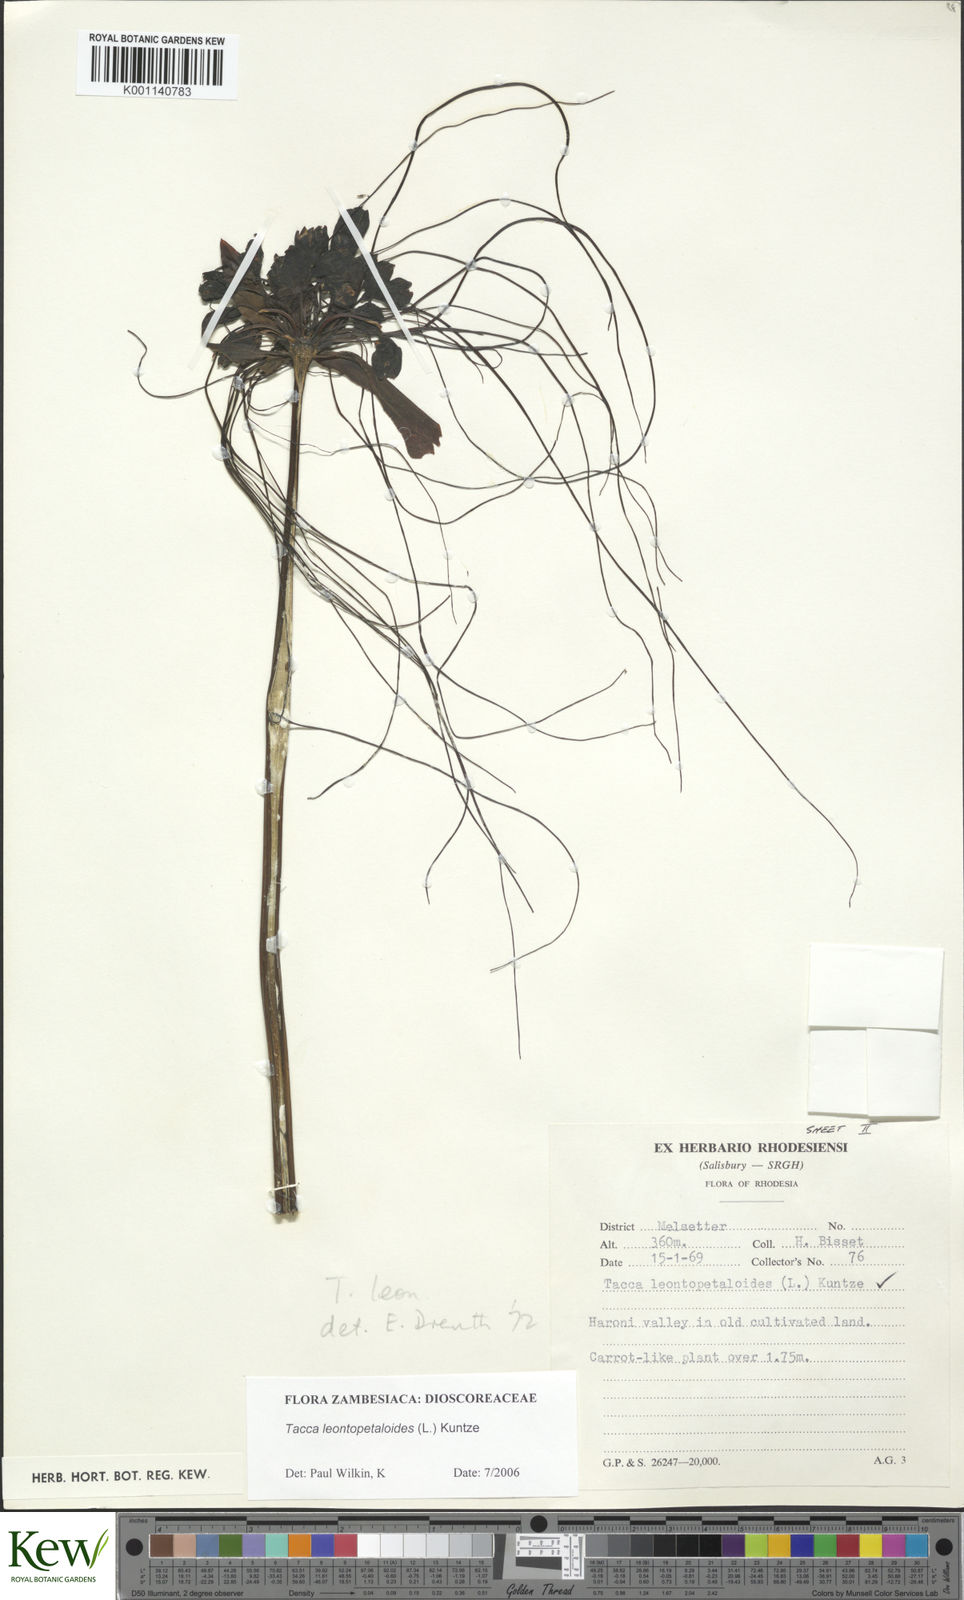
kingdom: Plantae
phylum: Tracheophyta
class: Liliopsida
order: Dioscoreales
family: Dioscoreaceae
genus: Tacca
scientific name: Tacca leontopetaloides
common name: Arrowroot
